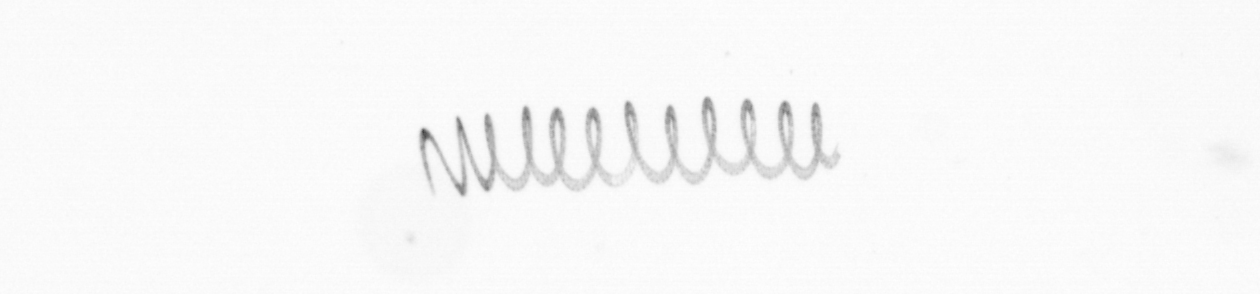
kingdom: Chromista
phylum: Ochrophyta
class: Bacillariophyceae
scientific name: Bacillariophyceae
